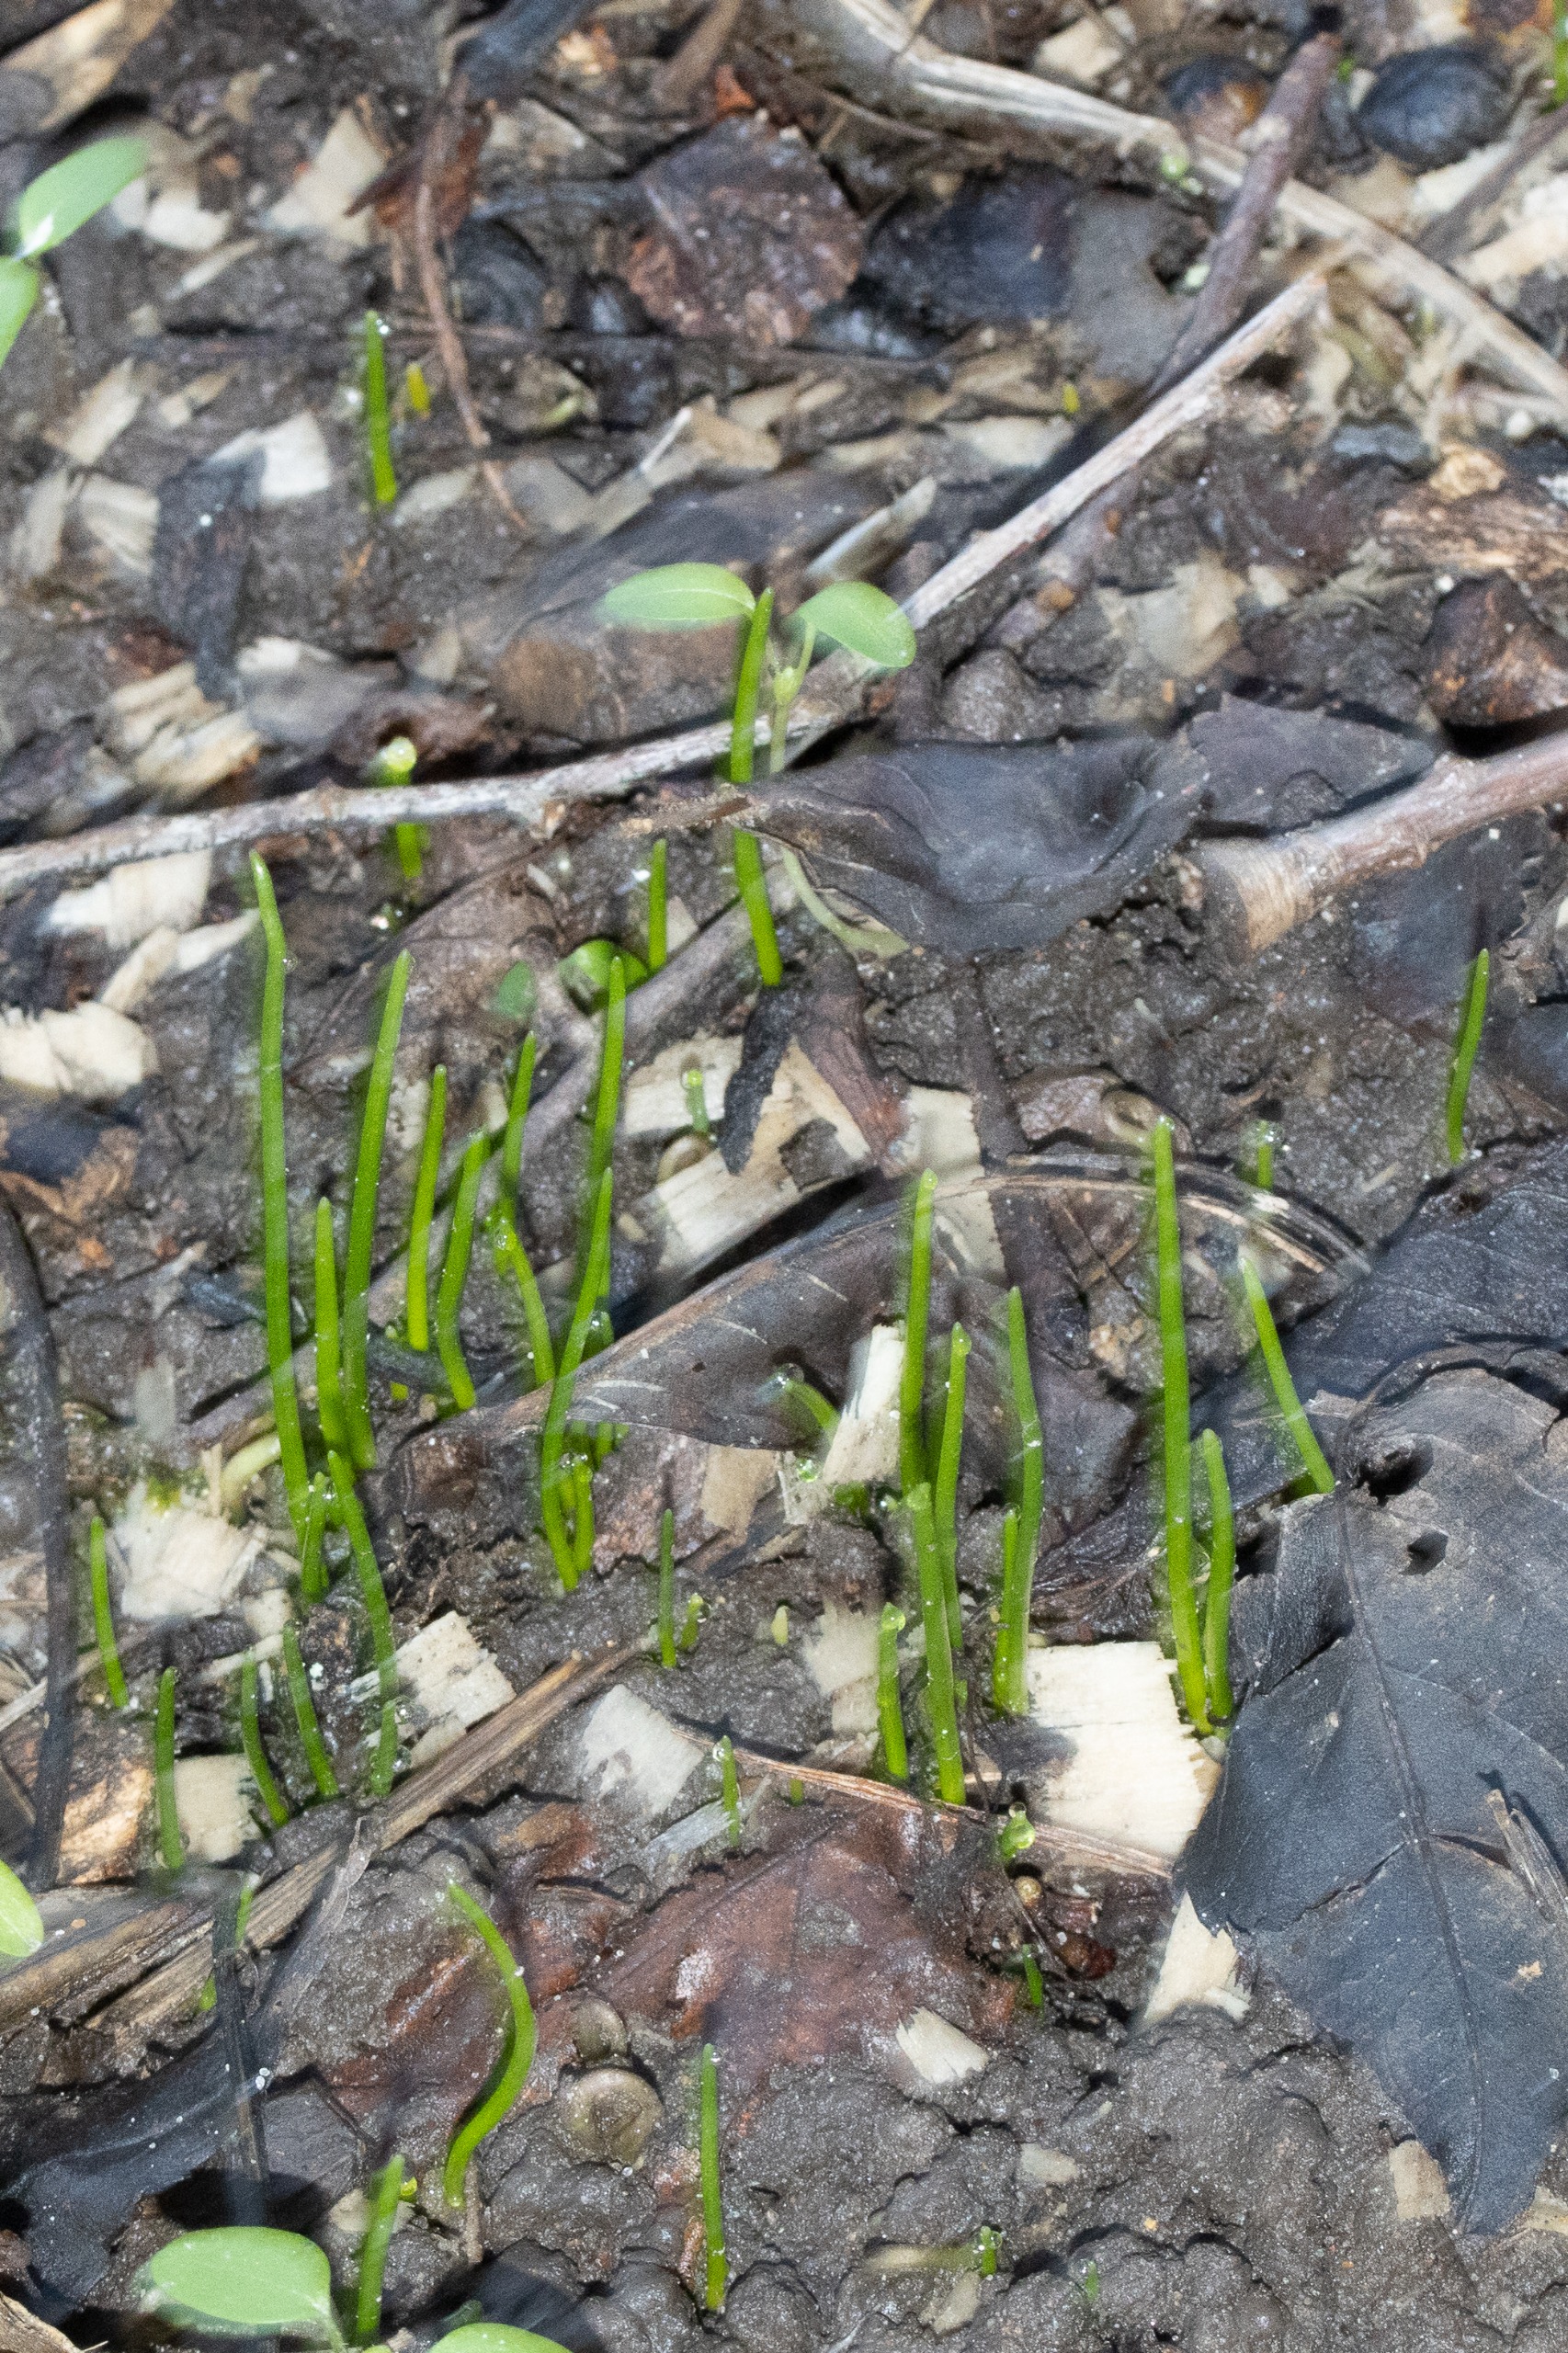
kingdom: Plantae
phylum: Tracheophyta
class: Liliopsida
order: Liliales
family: Liliaceae
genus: Gagea
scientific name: Gagea spathacea
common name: Hylster-guldstjerne
